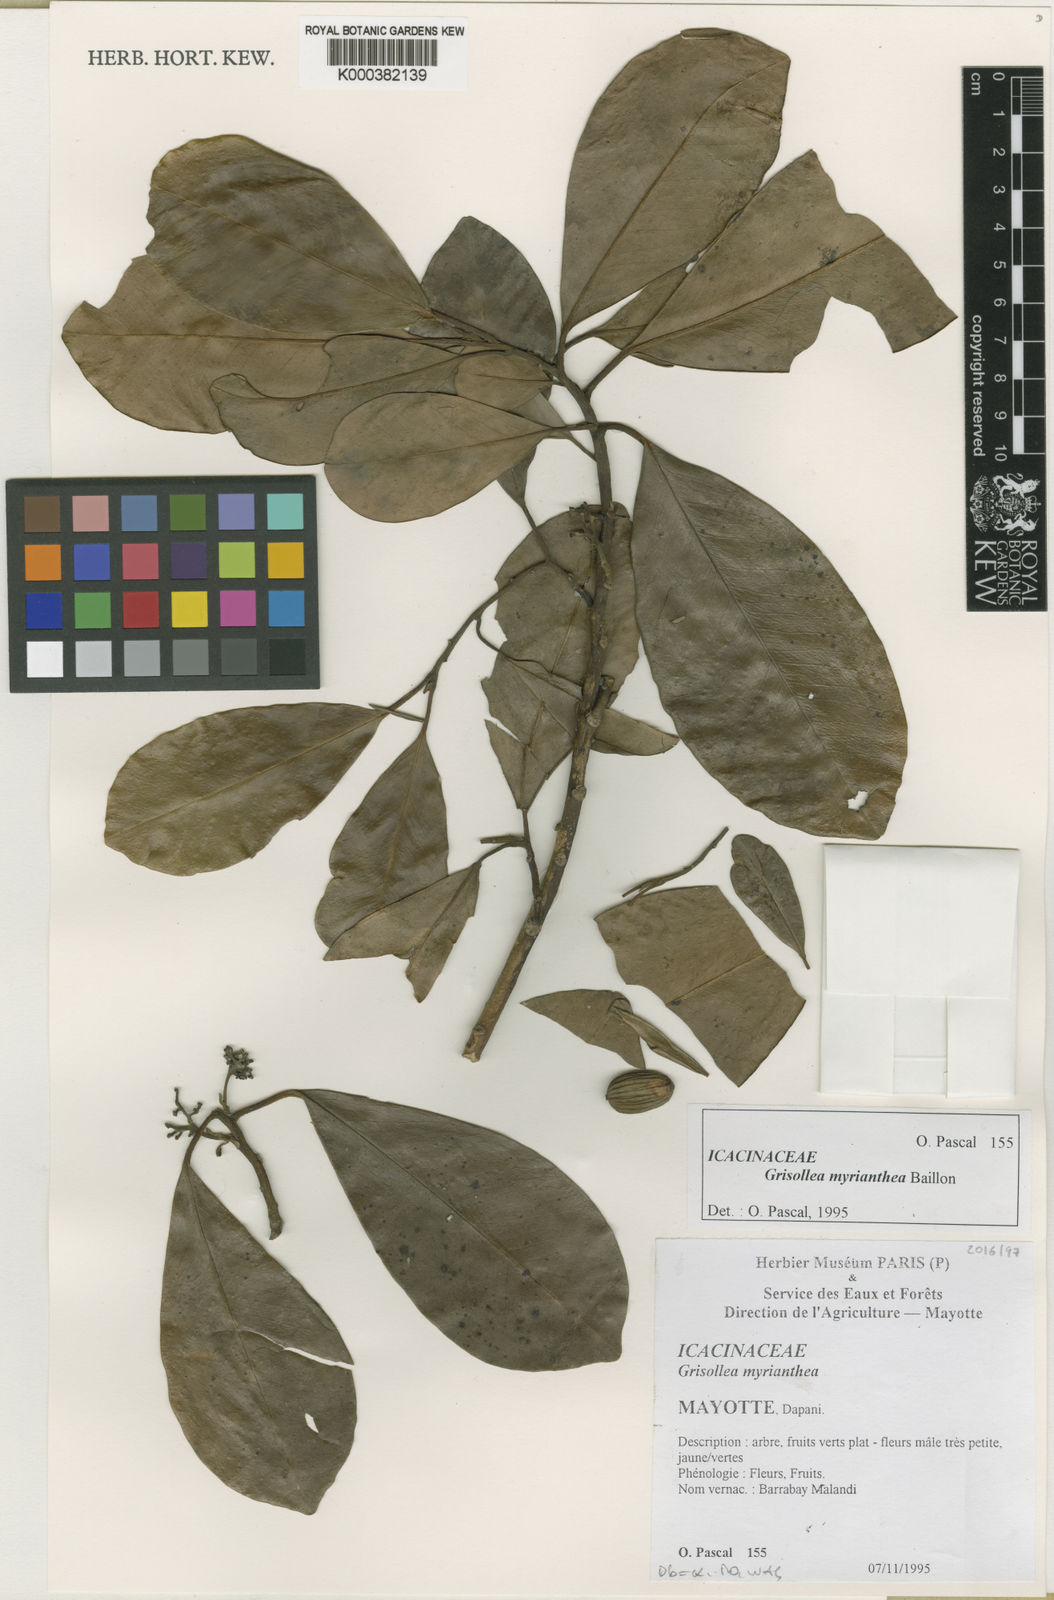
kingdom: Plantae
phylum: Tracheophyta
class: Magnoliopsida
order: Cardiopteridales
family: Stemonuraceae
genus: Grisollea
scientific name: Grisollea myriantha
